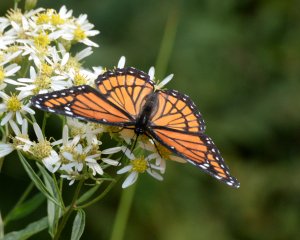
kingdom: Animalia
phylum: Arthropoda
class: Insecta
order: Lepidoptera
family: Nymphalidae
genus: Limenitis
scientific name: Limenitis archippus
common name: Viceroy
